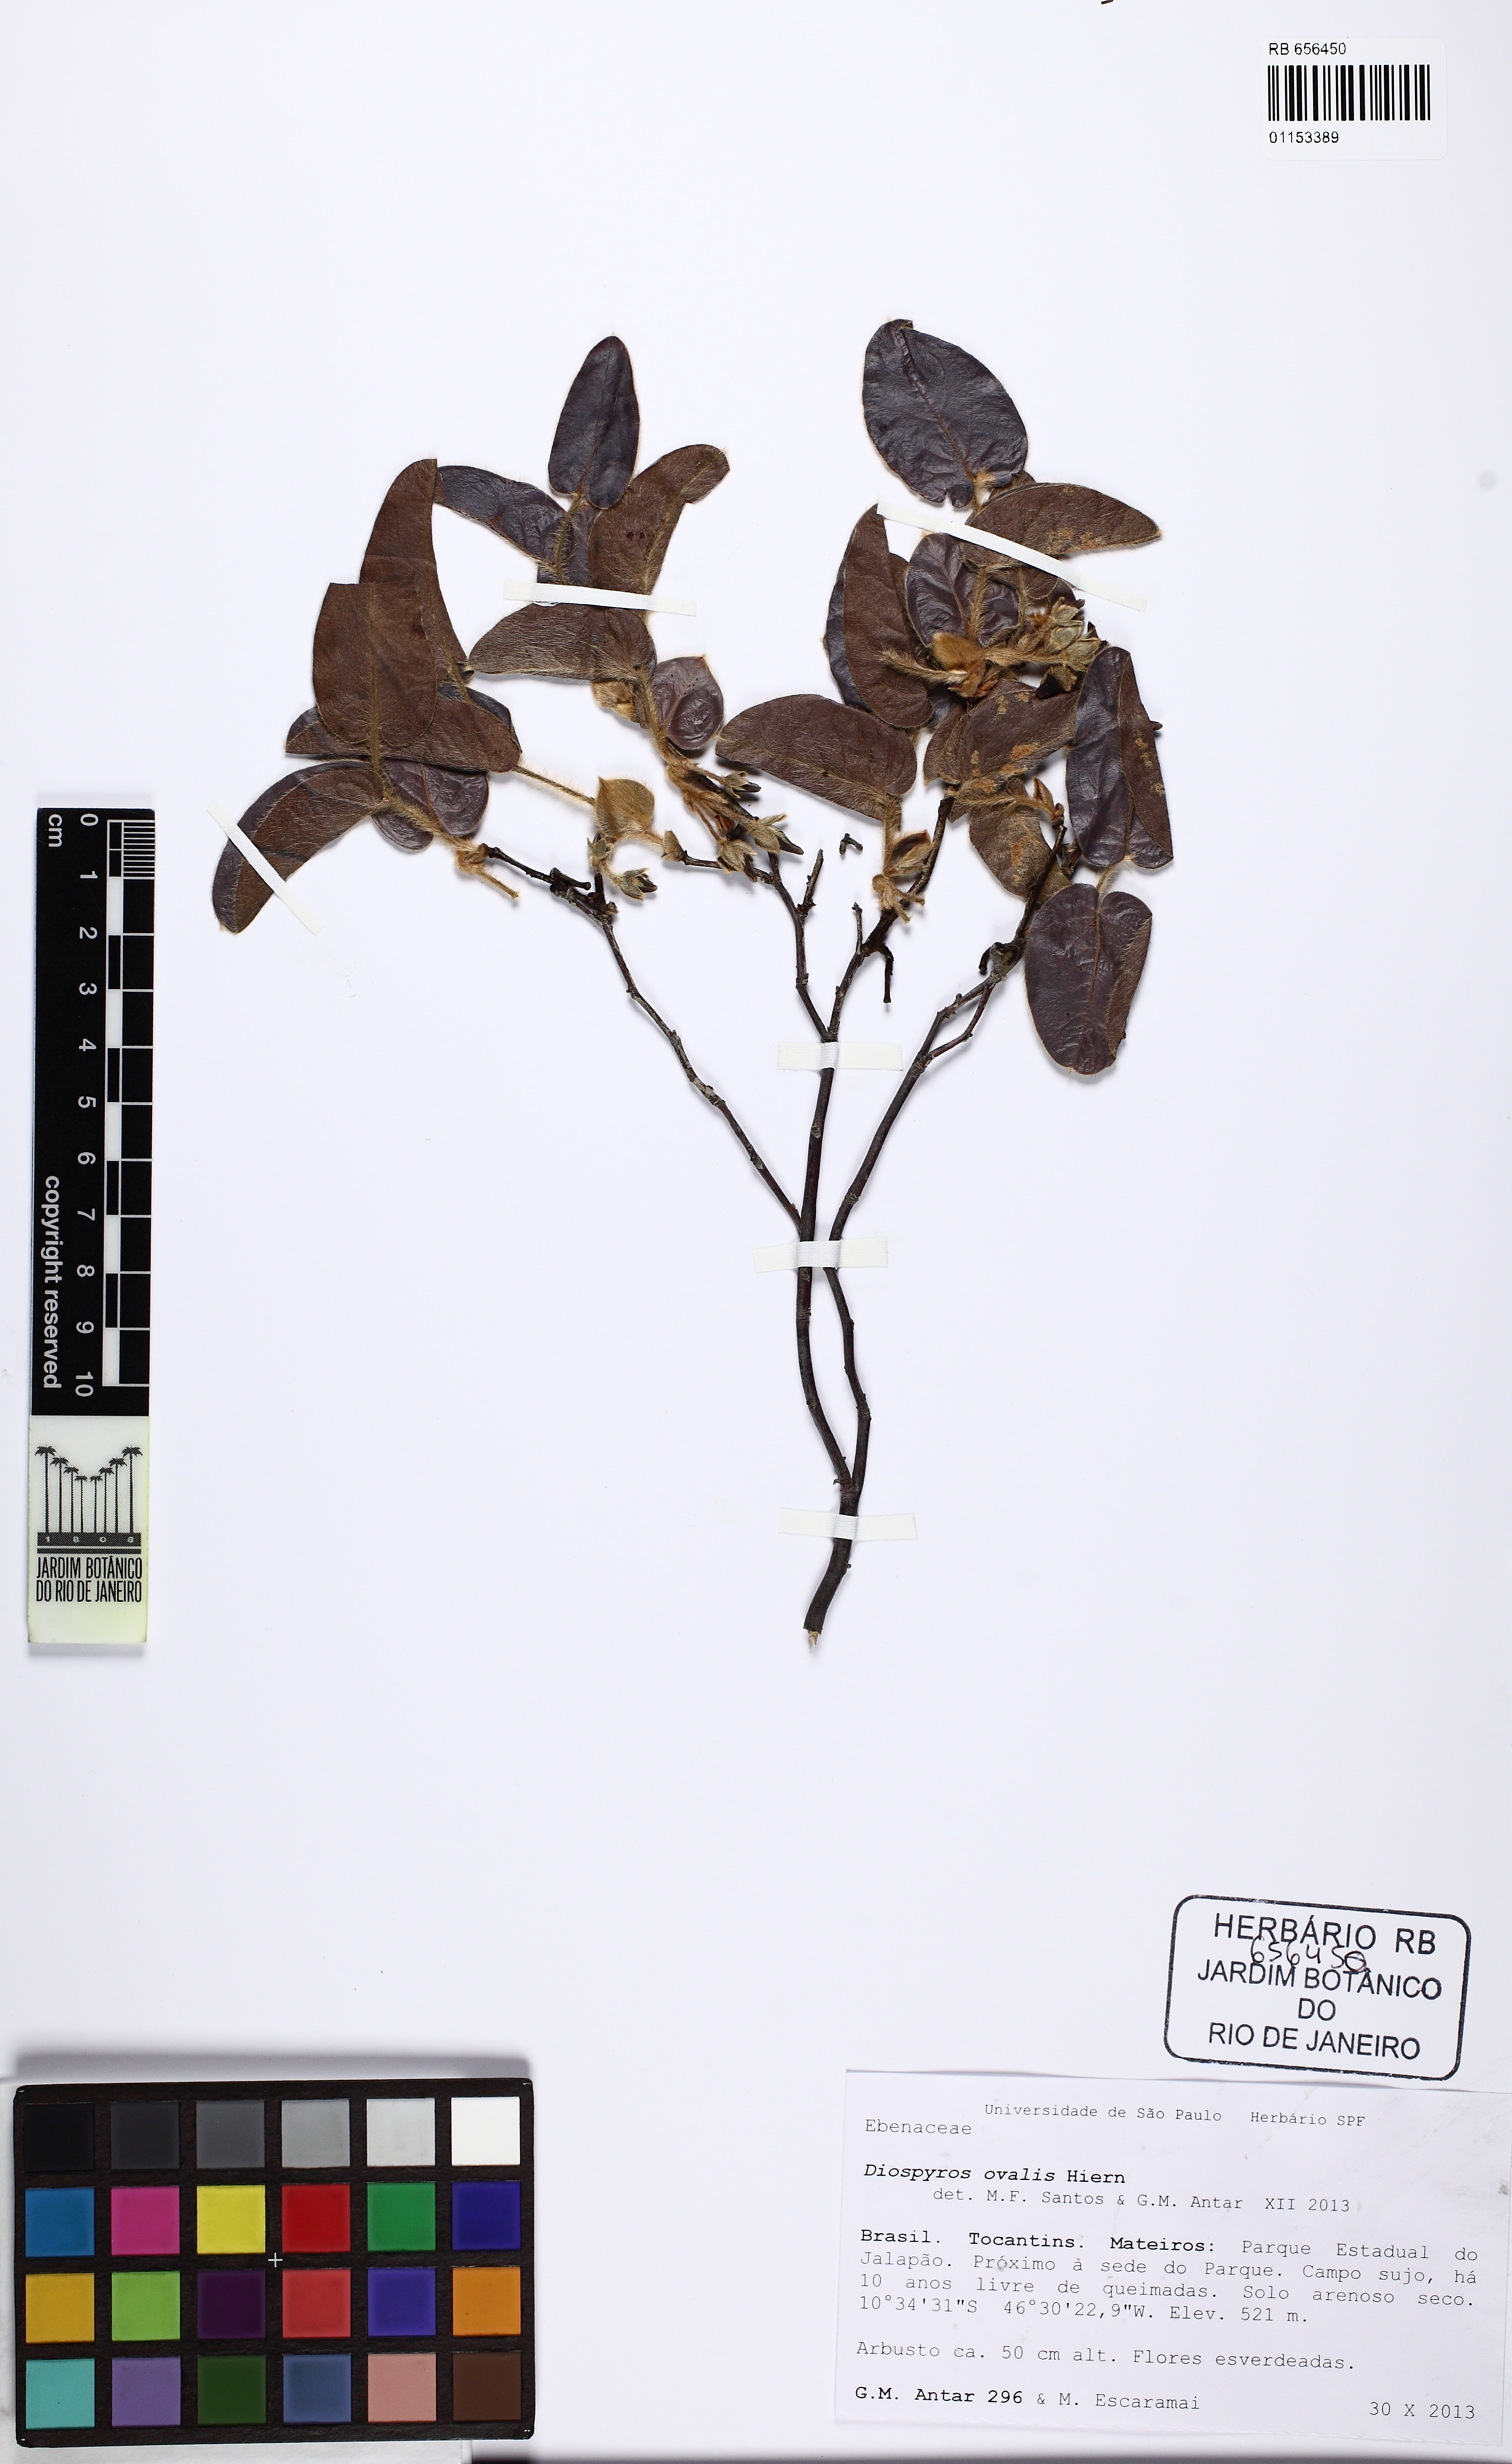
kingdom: Plantae
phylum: Tracheophyta
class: Magnoliopsida
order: Ericales
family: Ebenaceae
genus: Diospyros
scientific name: Diospyros ovalis
